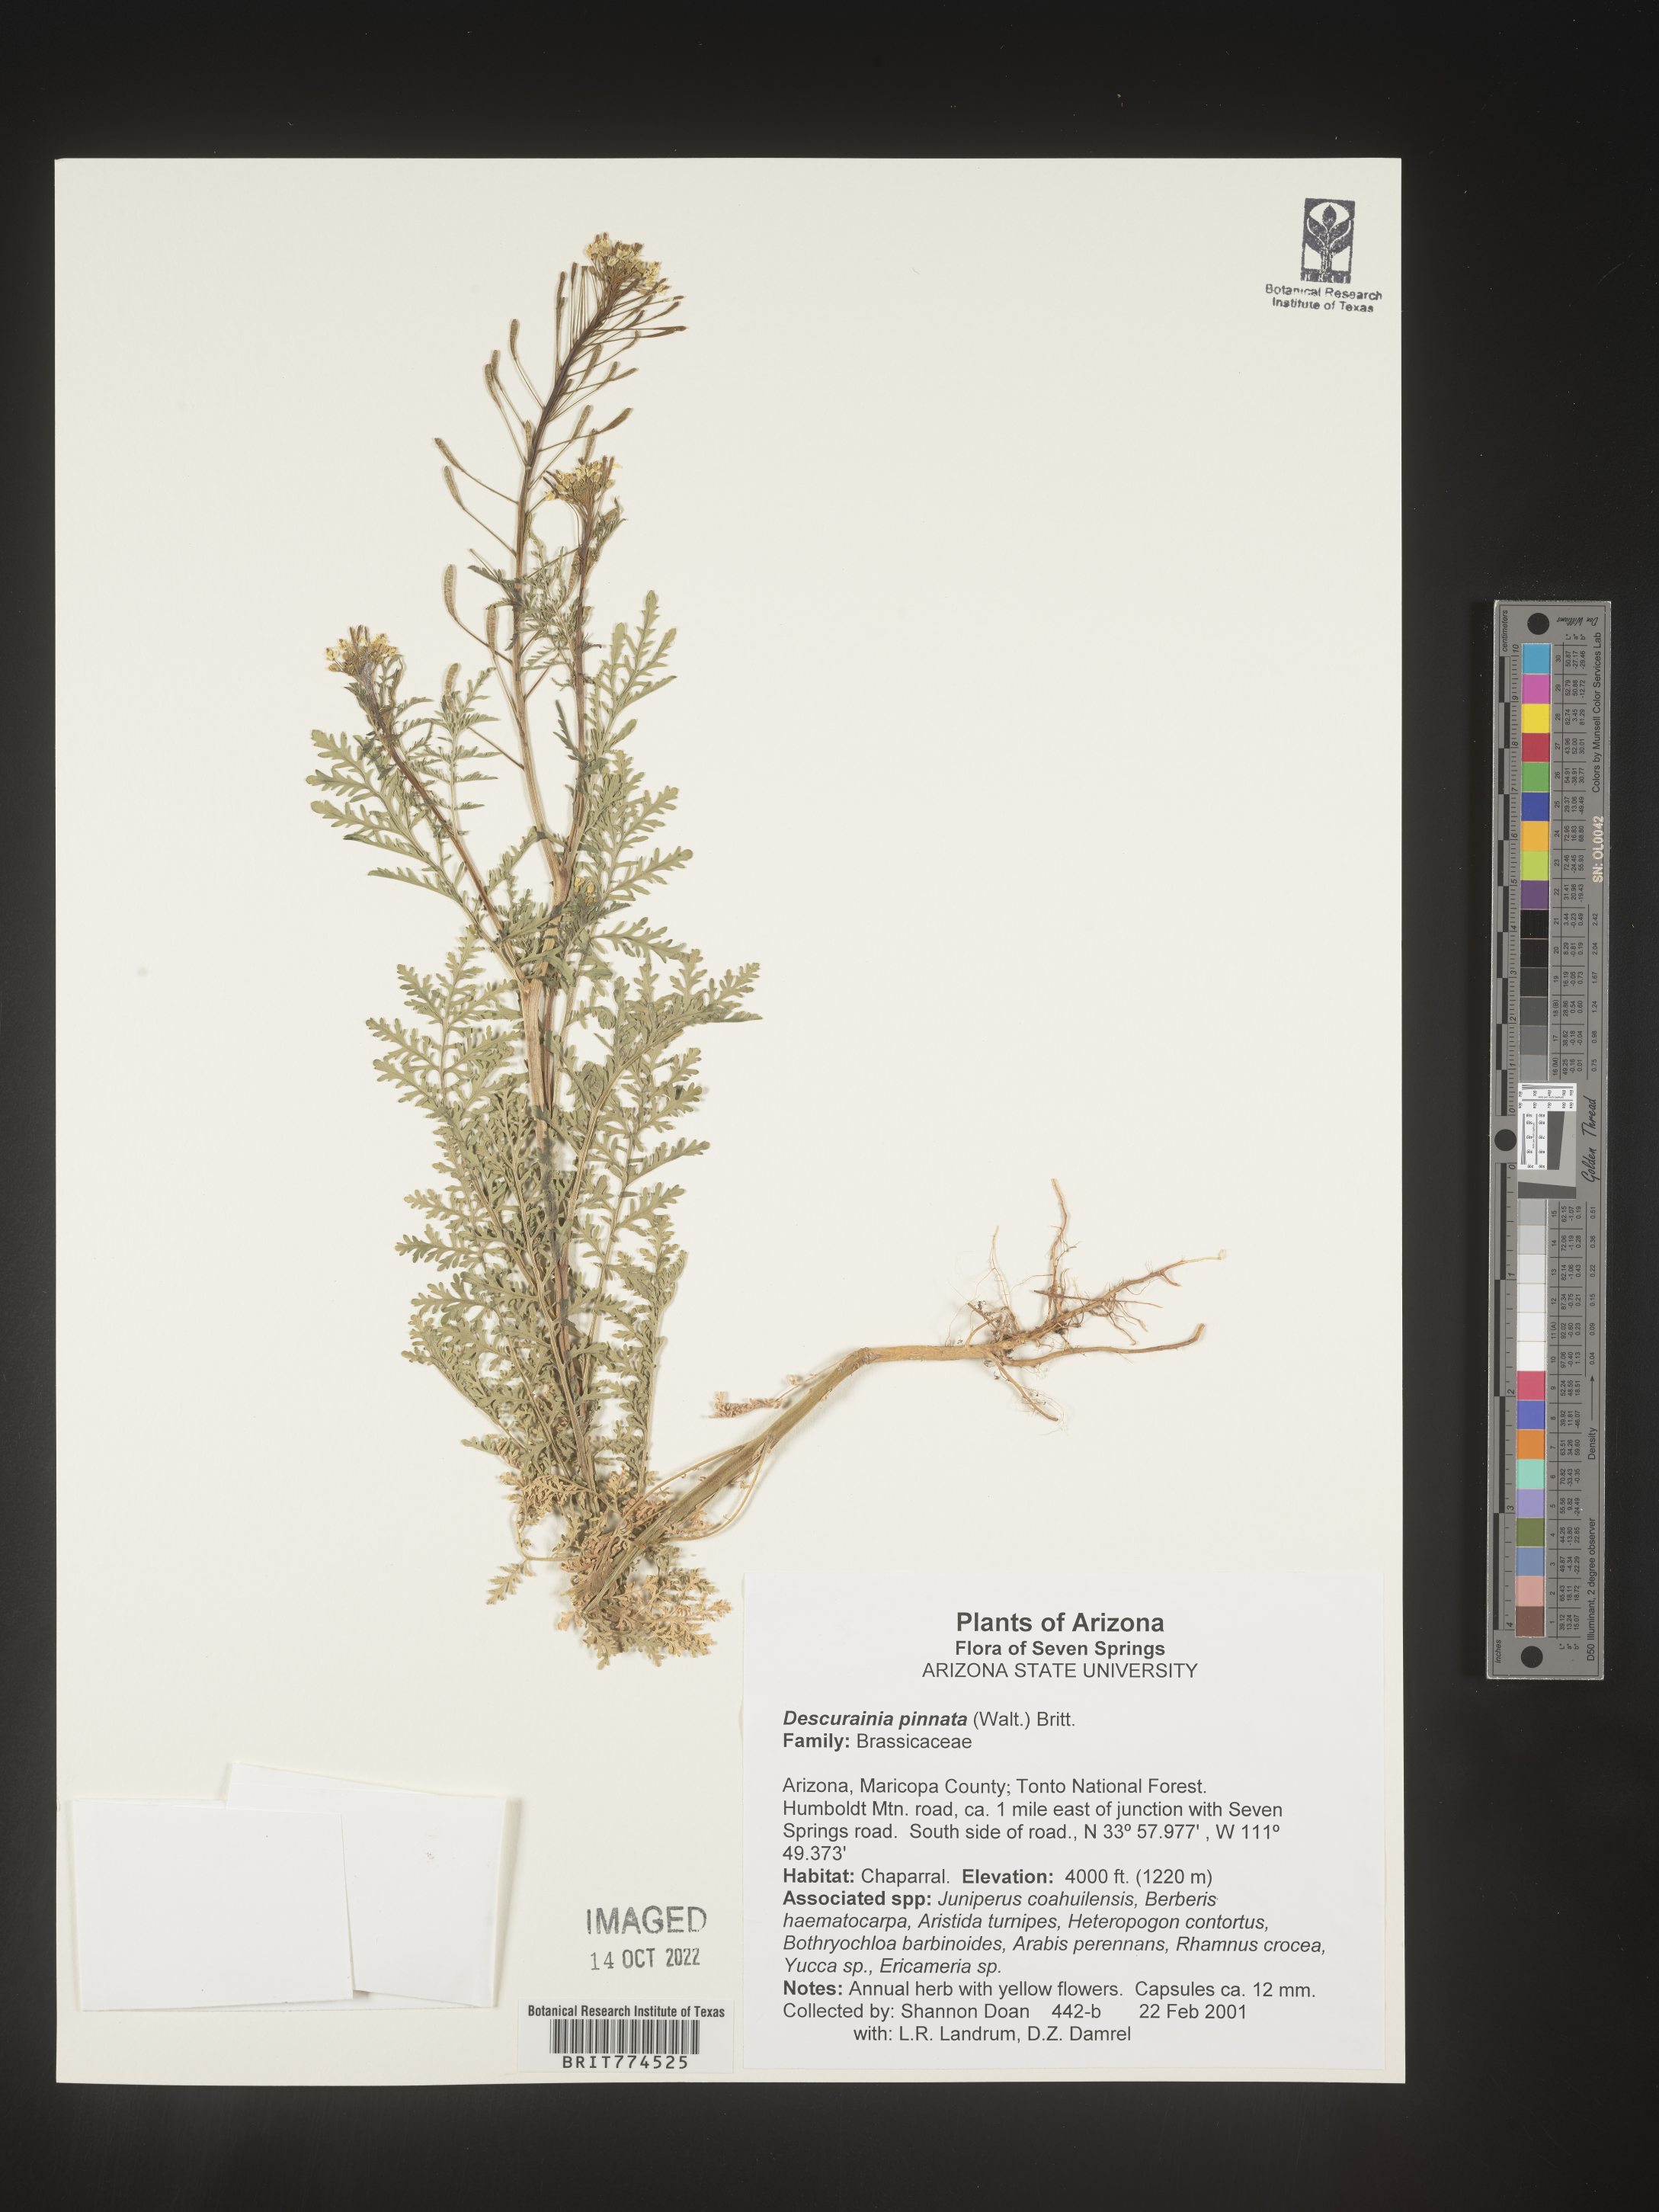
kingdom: Plantae
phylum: Tracheophyta
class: Magnoliopsida
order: Brassicales
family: Brassicaceae
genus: Descurainia
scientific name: Descurainia pinnata
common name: Western tansy mustard
